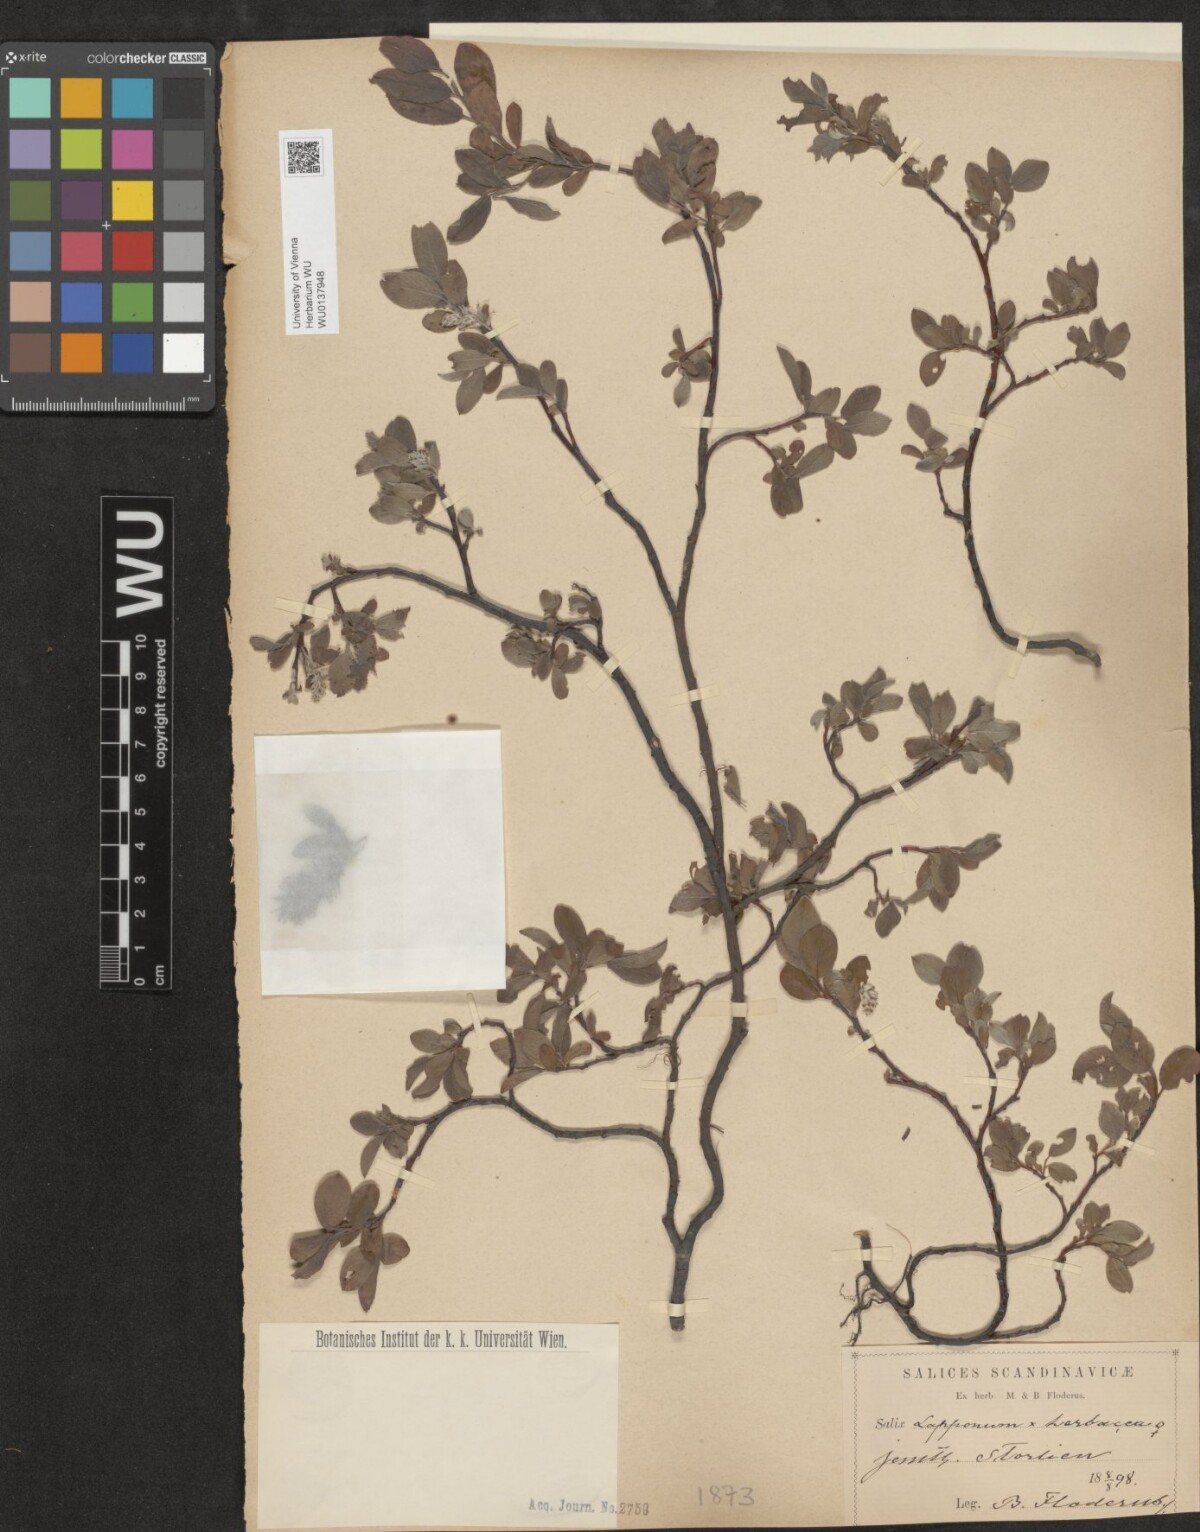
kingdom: Plantae
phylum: Tracheophyta
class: Magnoliopsida
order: Malpighiales
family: Salicaceae
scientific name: Salicaceae
